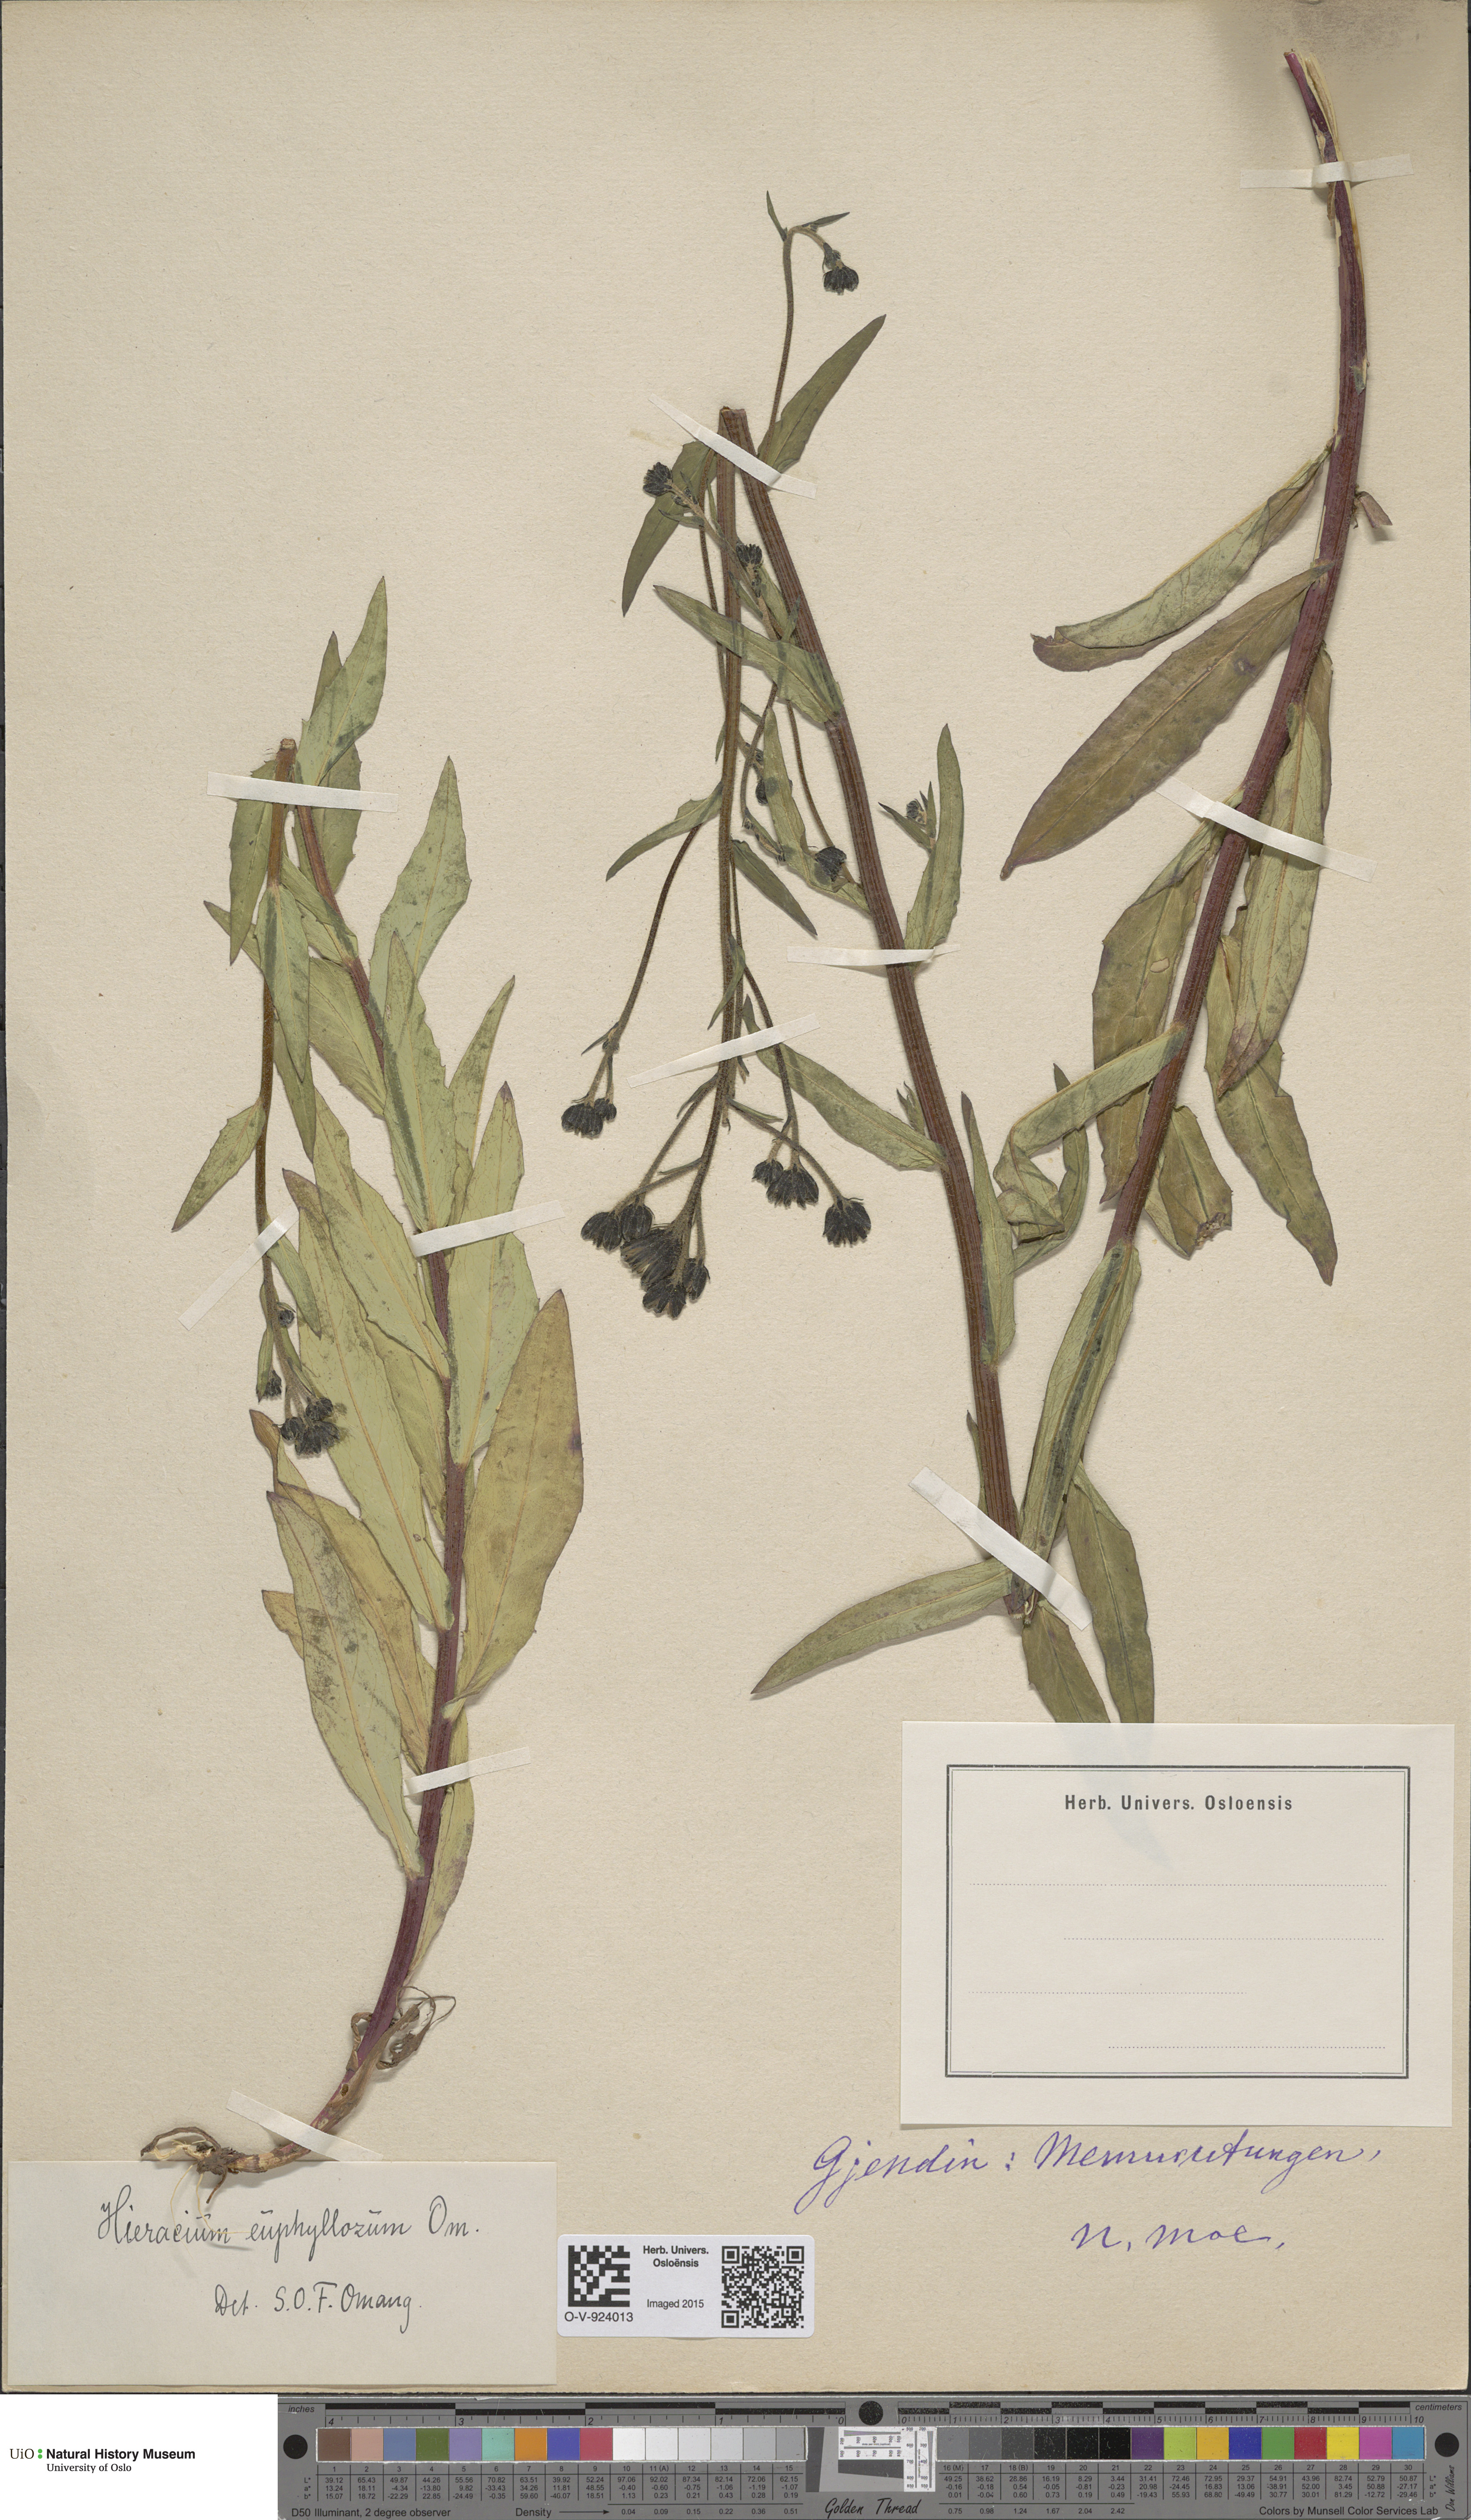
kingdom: Plantae
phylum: Tracheophyta
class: Magnoliopsida
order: Asterales
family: Asteraceae
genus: Hieracium
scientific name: Hieracium
